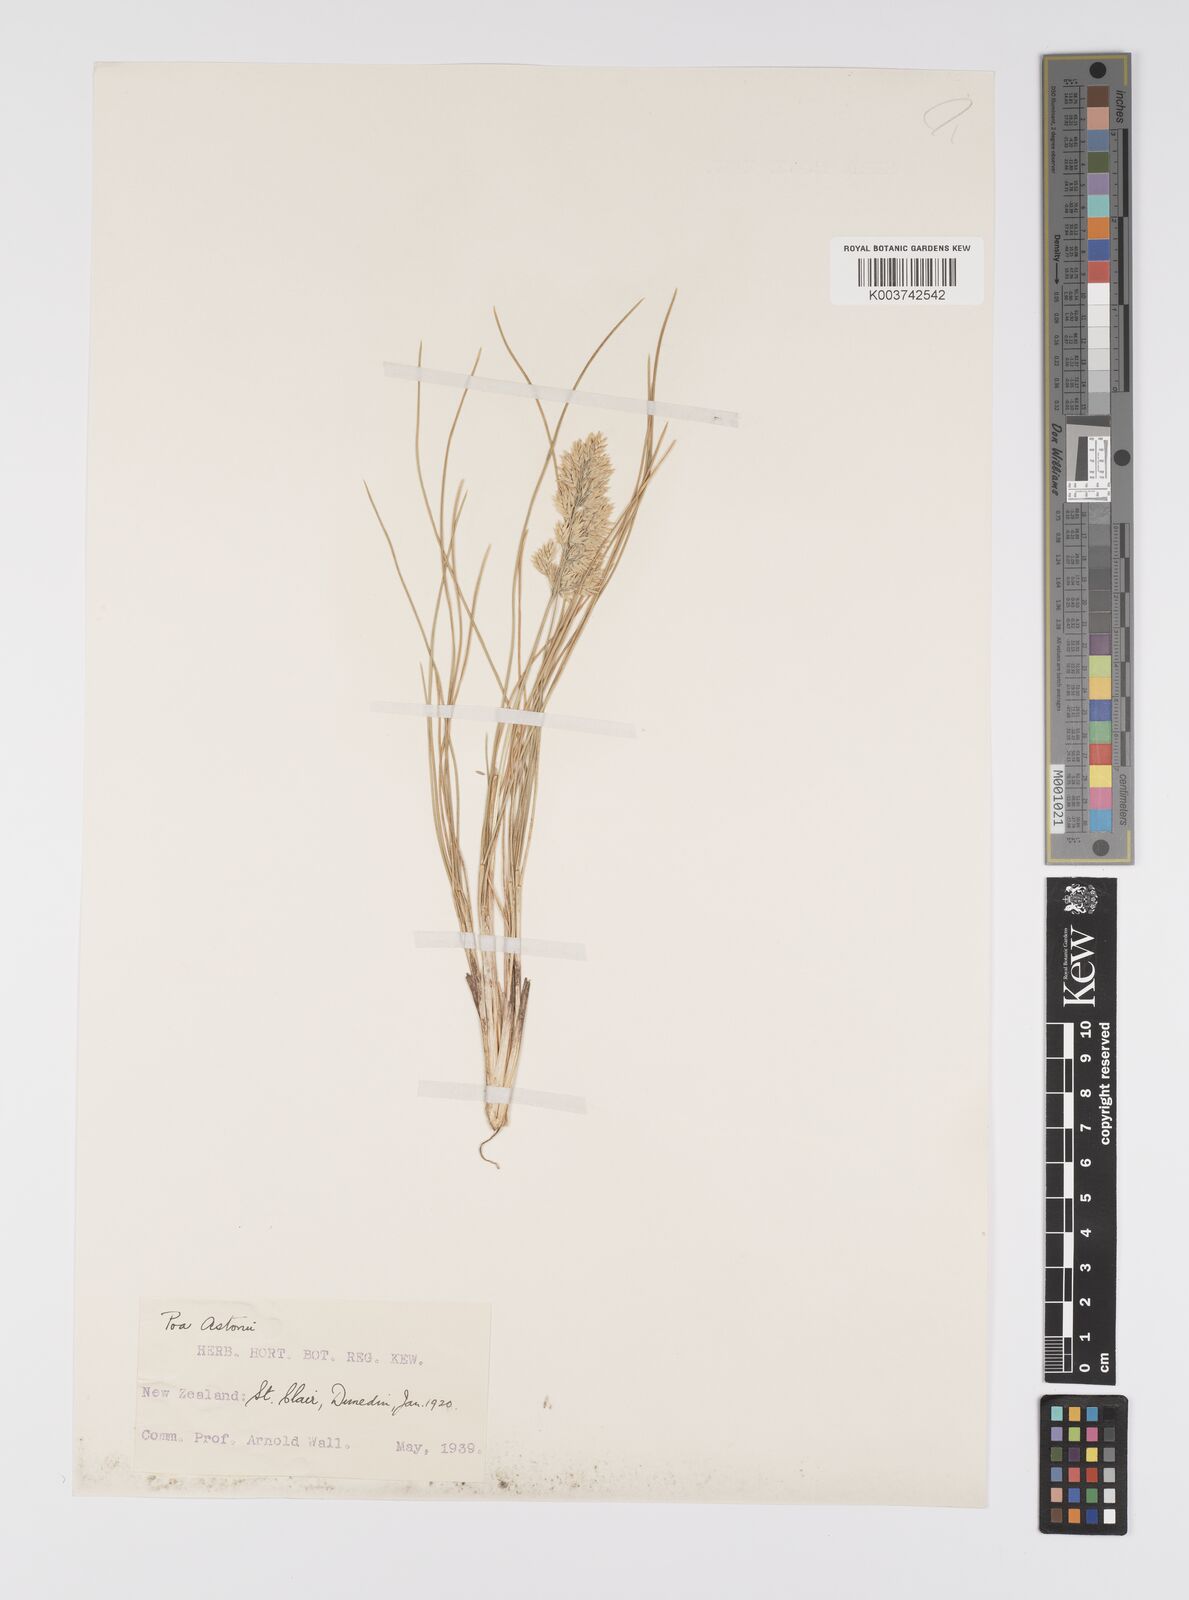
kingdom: Plantae
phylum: Tracheophyta
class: Liliopsida
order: Poales
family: Poaceae
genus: Poa
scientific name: Poa astonii
